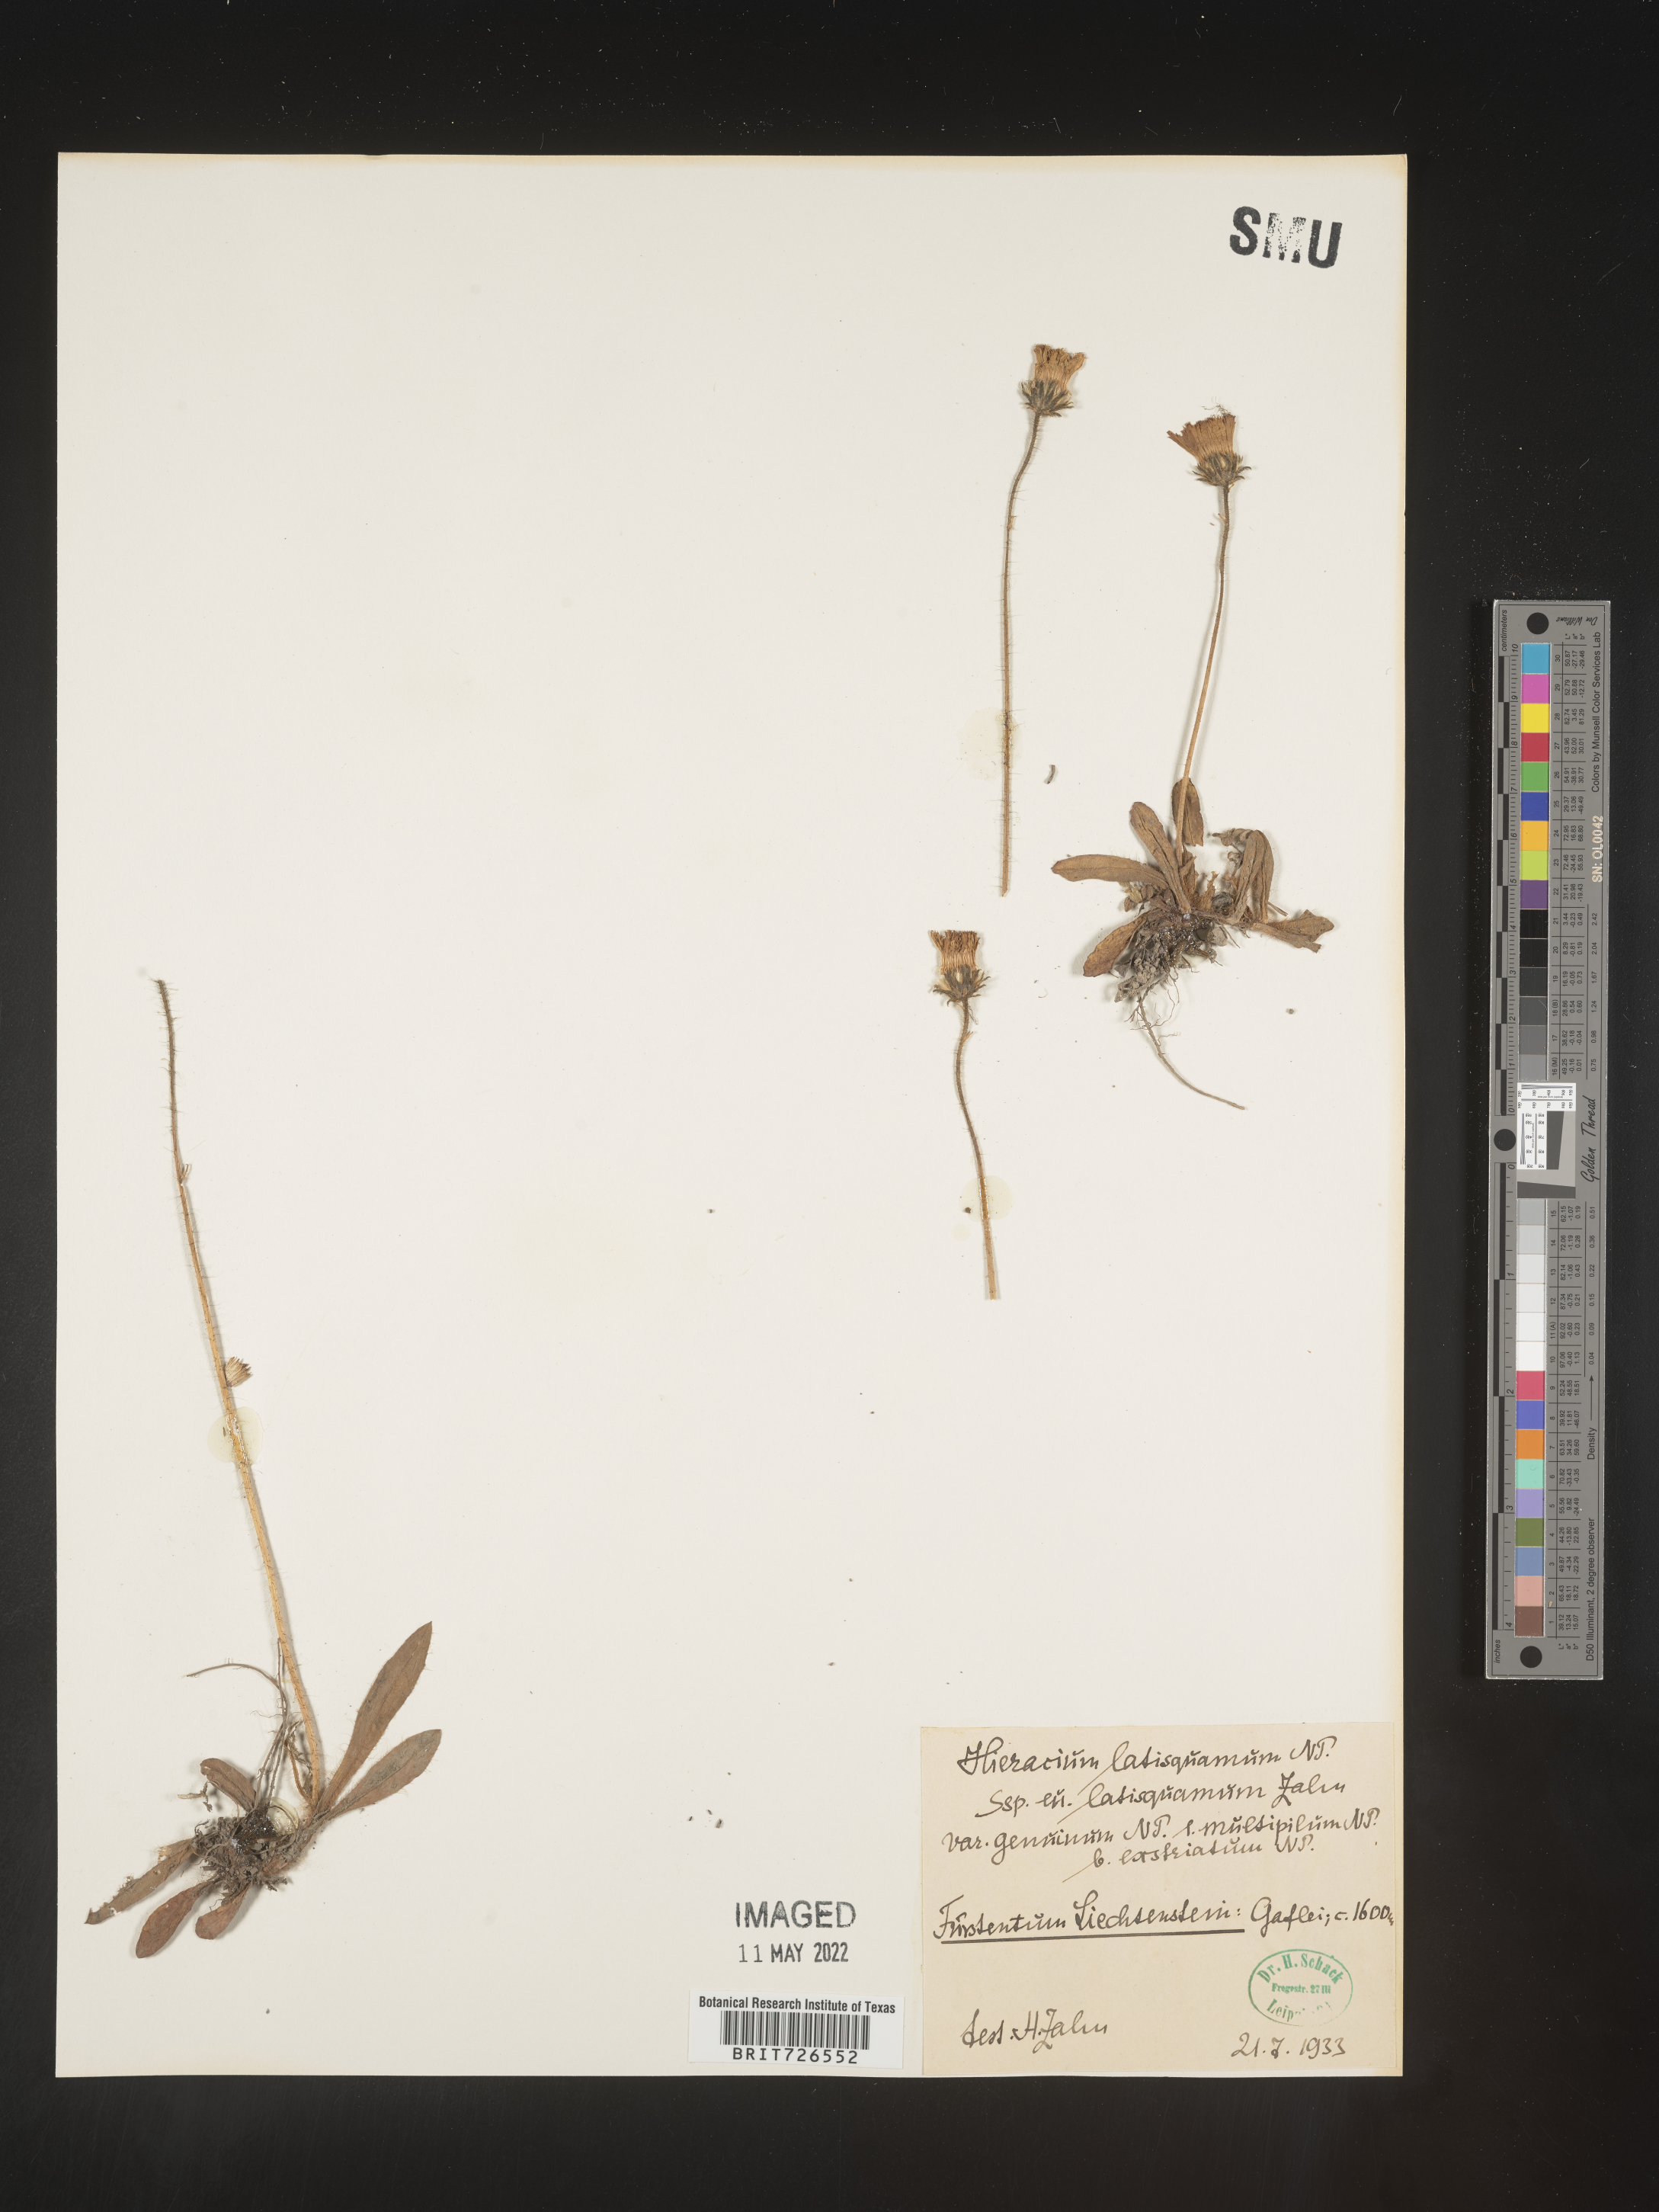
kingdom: Plantae
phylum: Tracheophyta
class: Magnoliopsida
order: Asterales
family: Asteraceae
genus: Hieracium
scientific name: Hieracium
